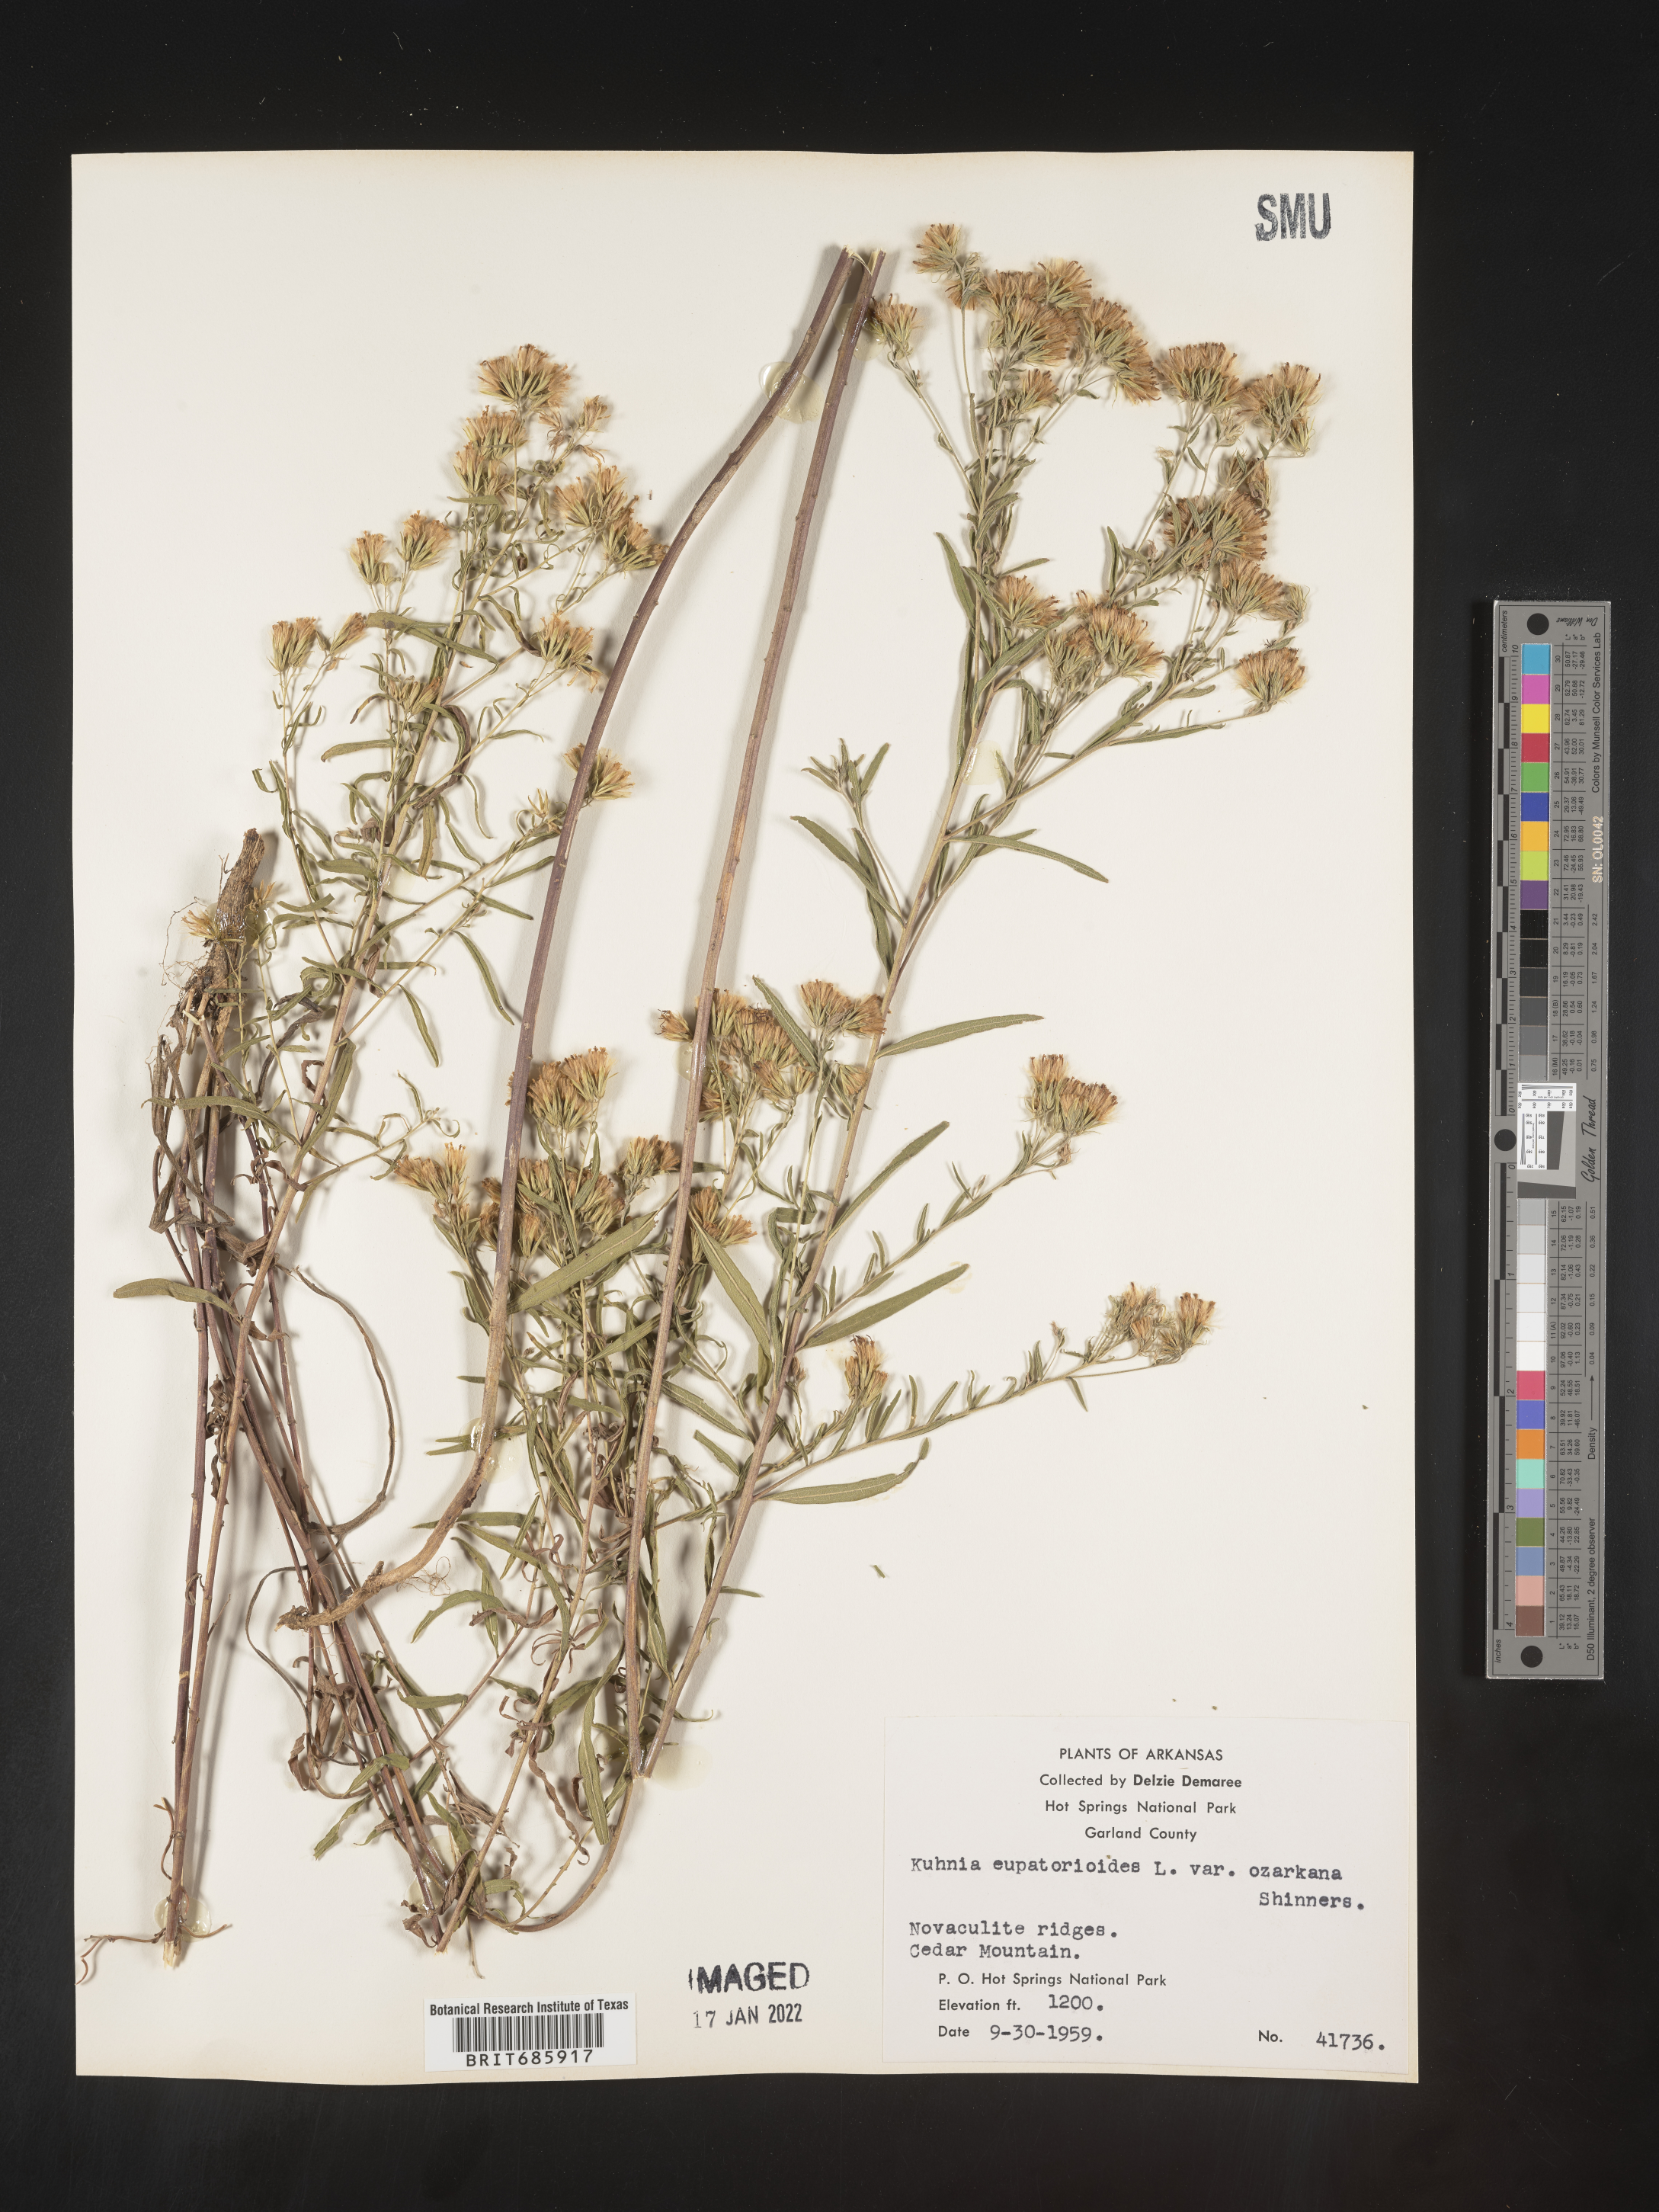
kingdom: Plantae
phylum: Tracheophyta
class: Magnoliopsida
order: Asterales
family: Asteraceae
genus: Brickellia
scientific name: Brickellia ozarkana
